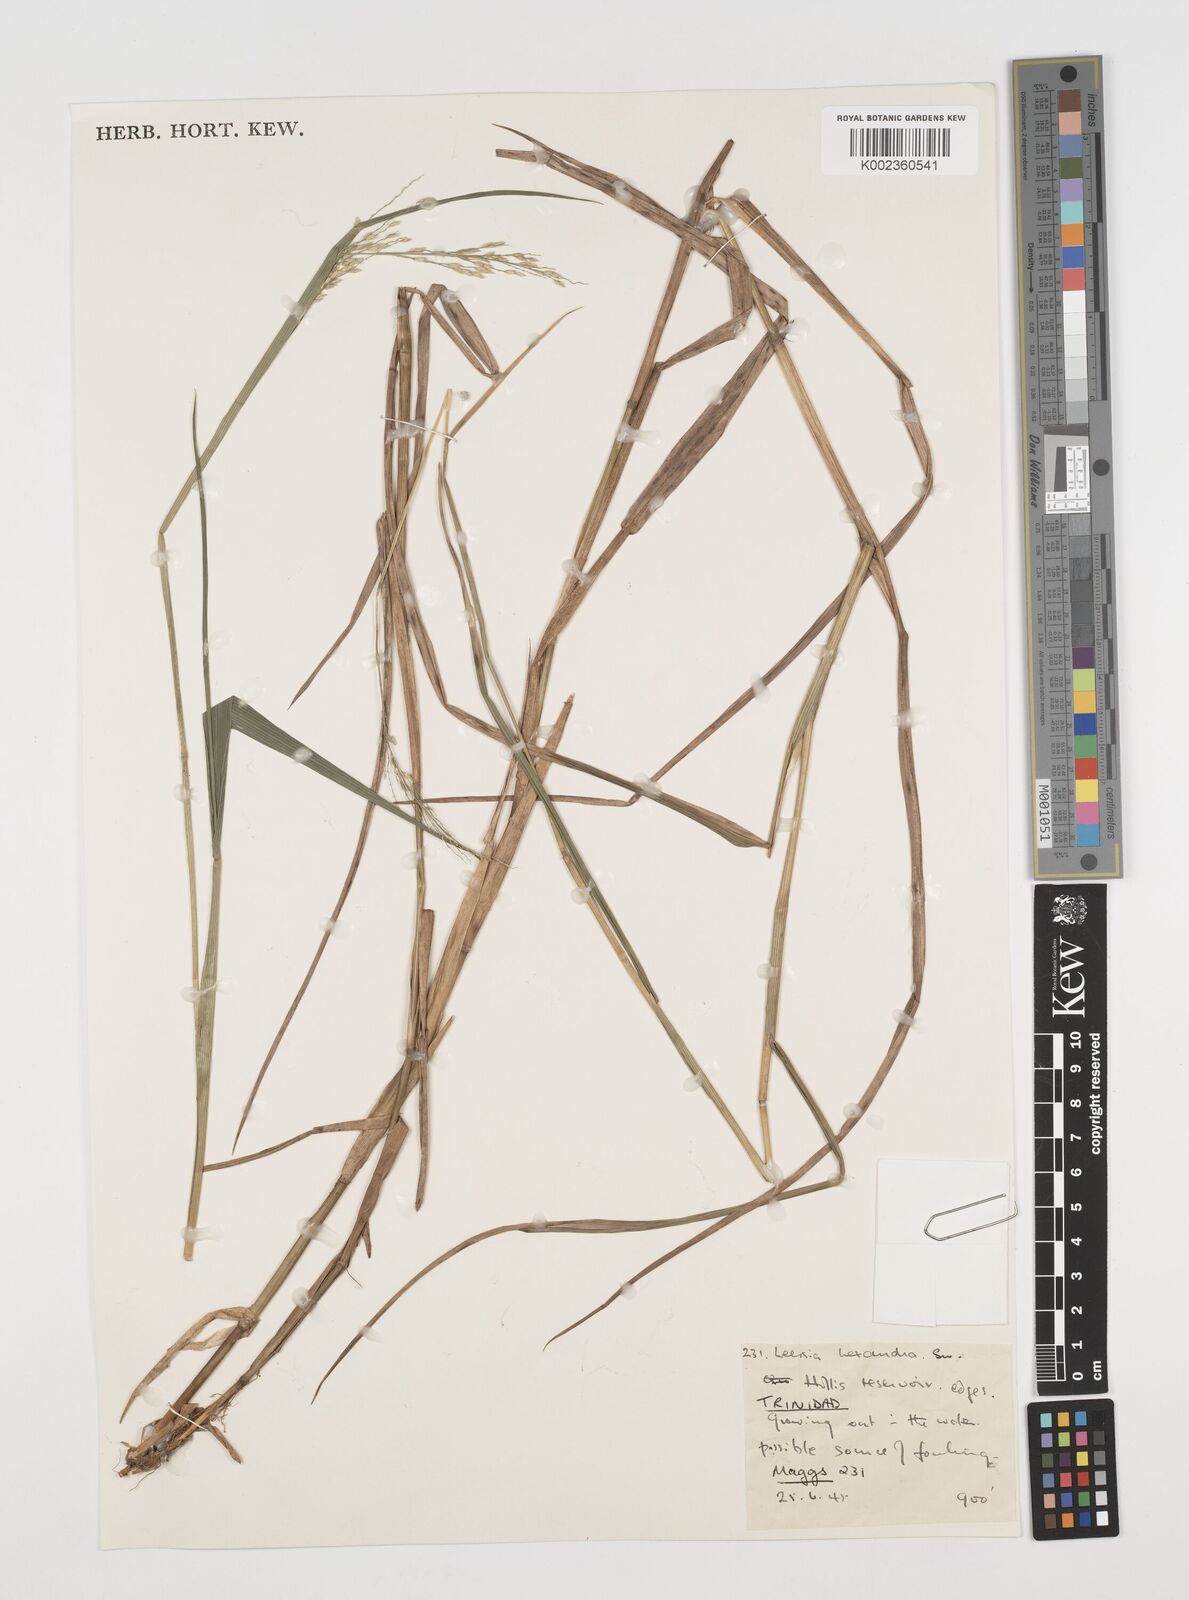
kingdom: Plantae
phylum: Tracheophyta
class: Liliopsida
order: Poales
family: Poaceae
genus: Leersia
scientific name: Leersia hexandra
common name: Southern cut grass
